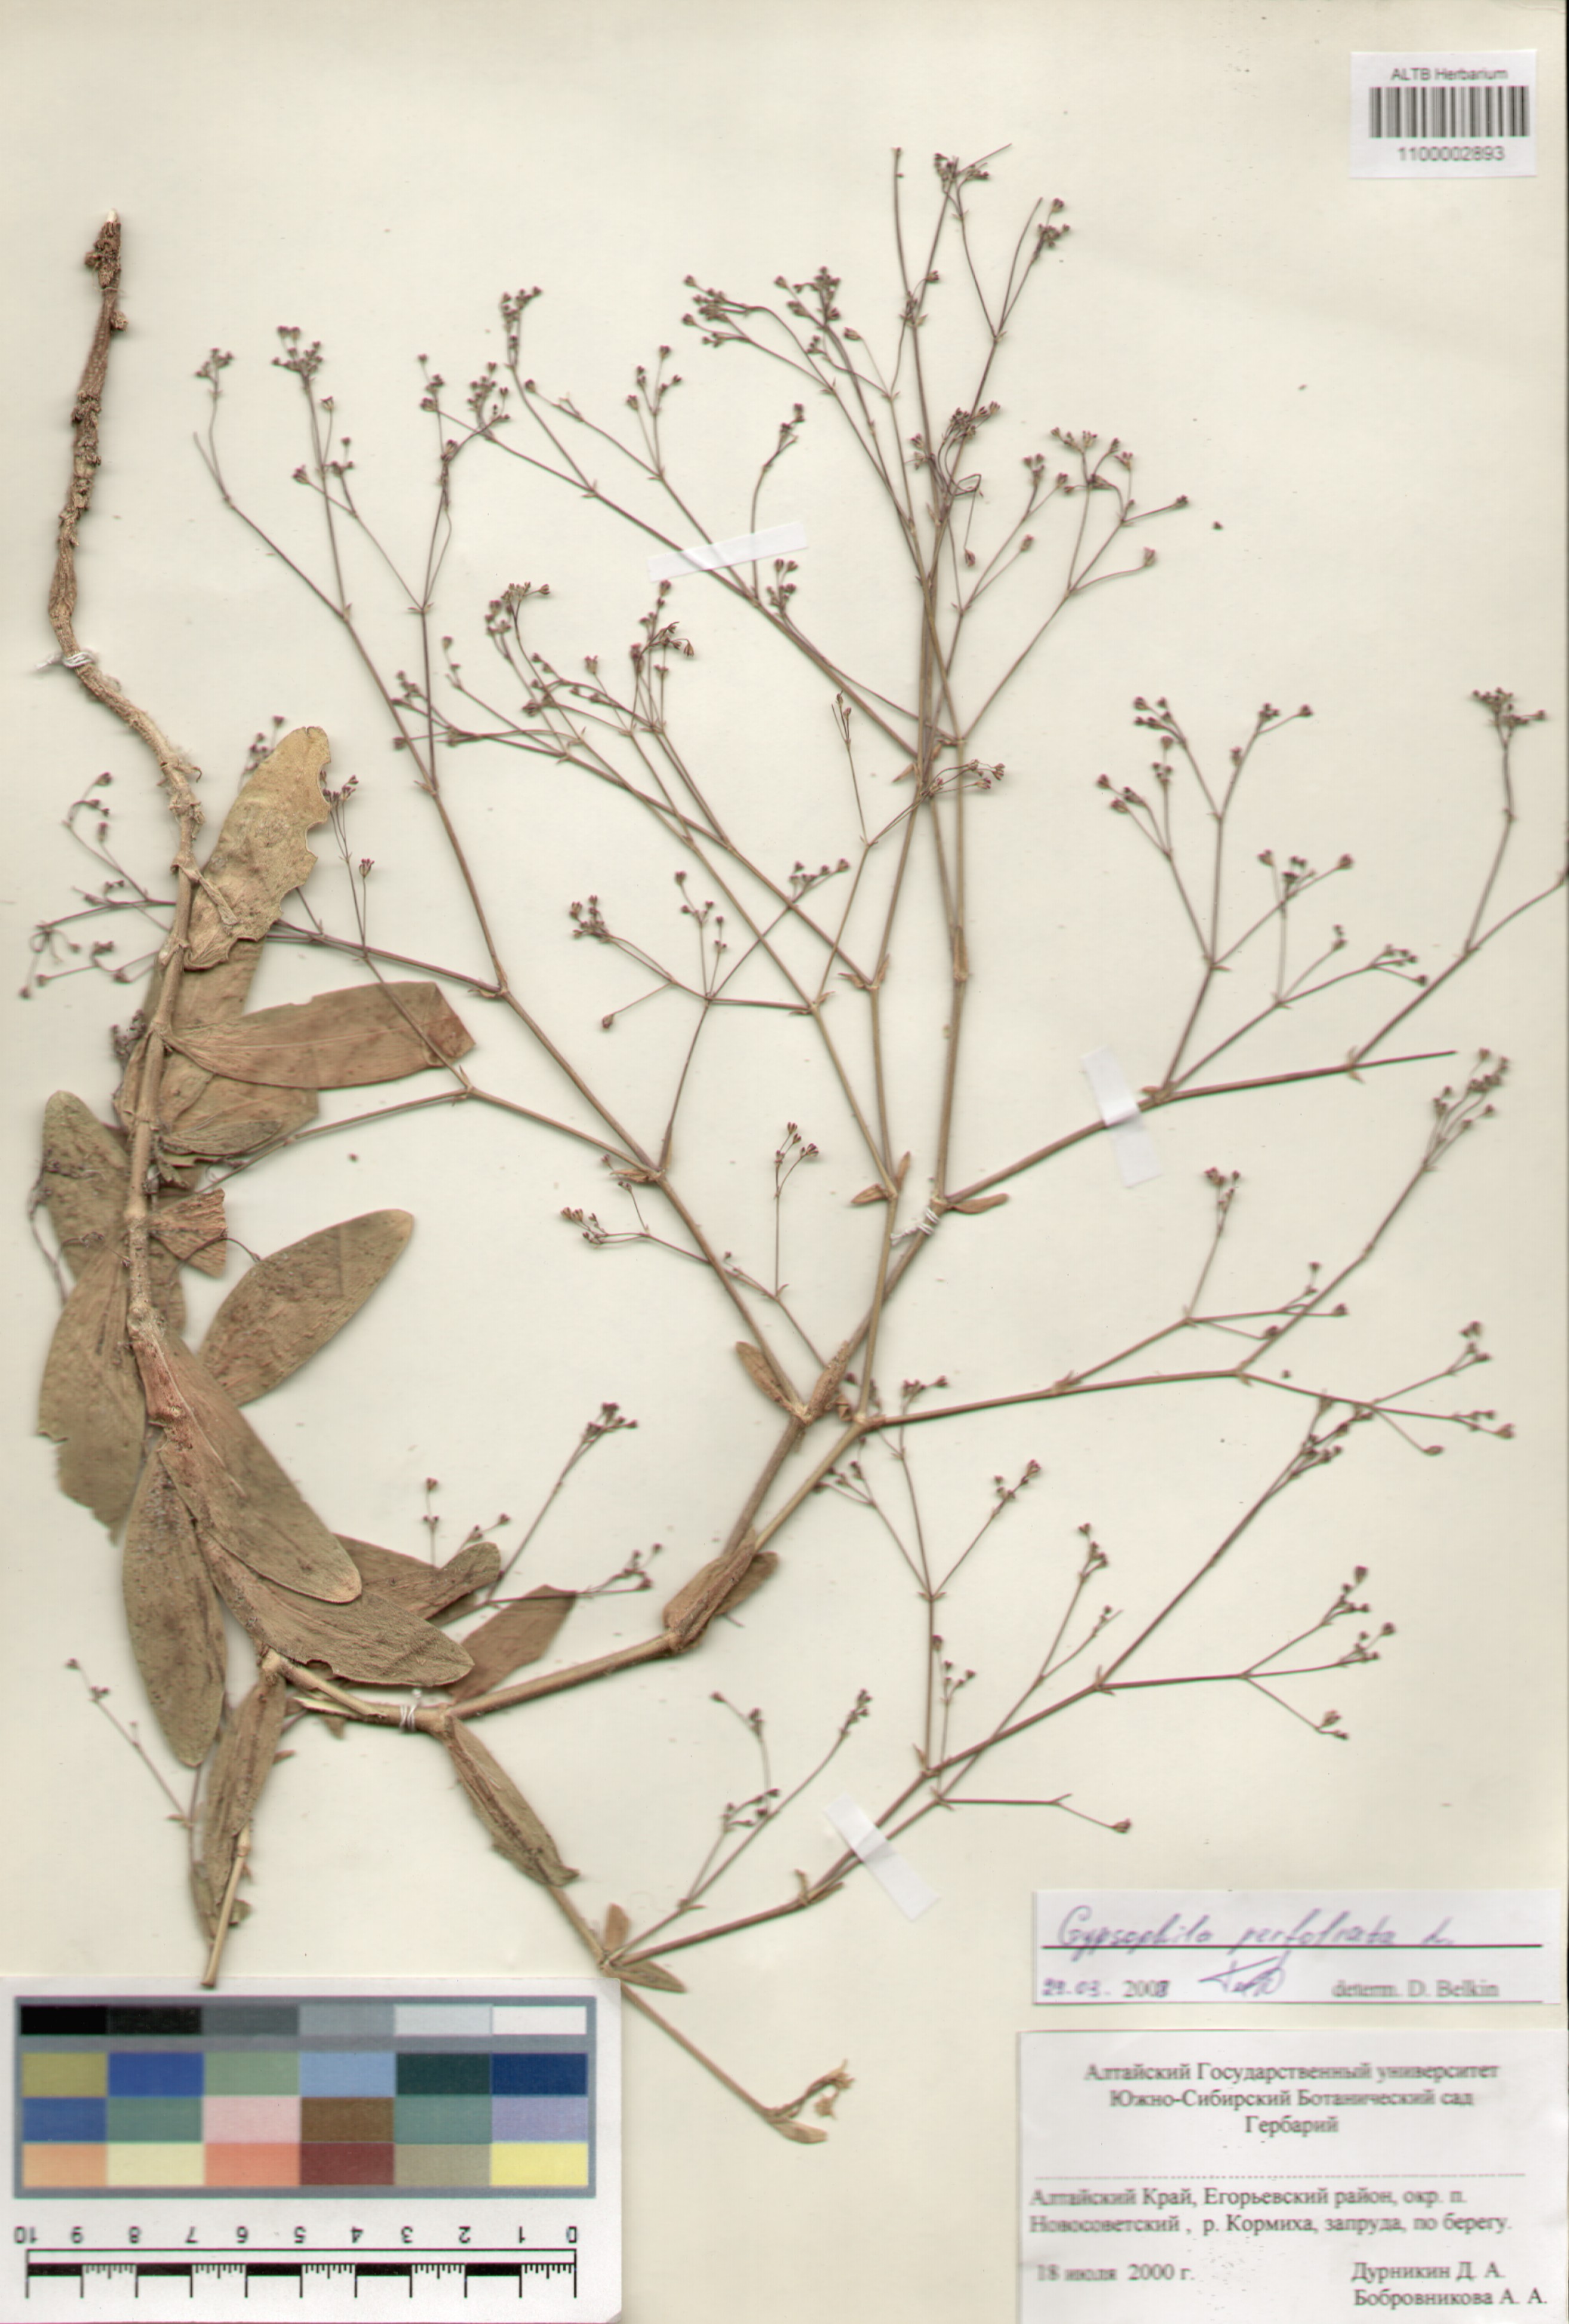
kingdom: Plantae
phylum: Tracheophyta
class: Magnoliopsida
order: Caryophyllales
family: Caryophyllaceae
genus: Gypsophila
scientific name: Gypsophila perfoliata
